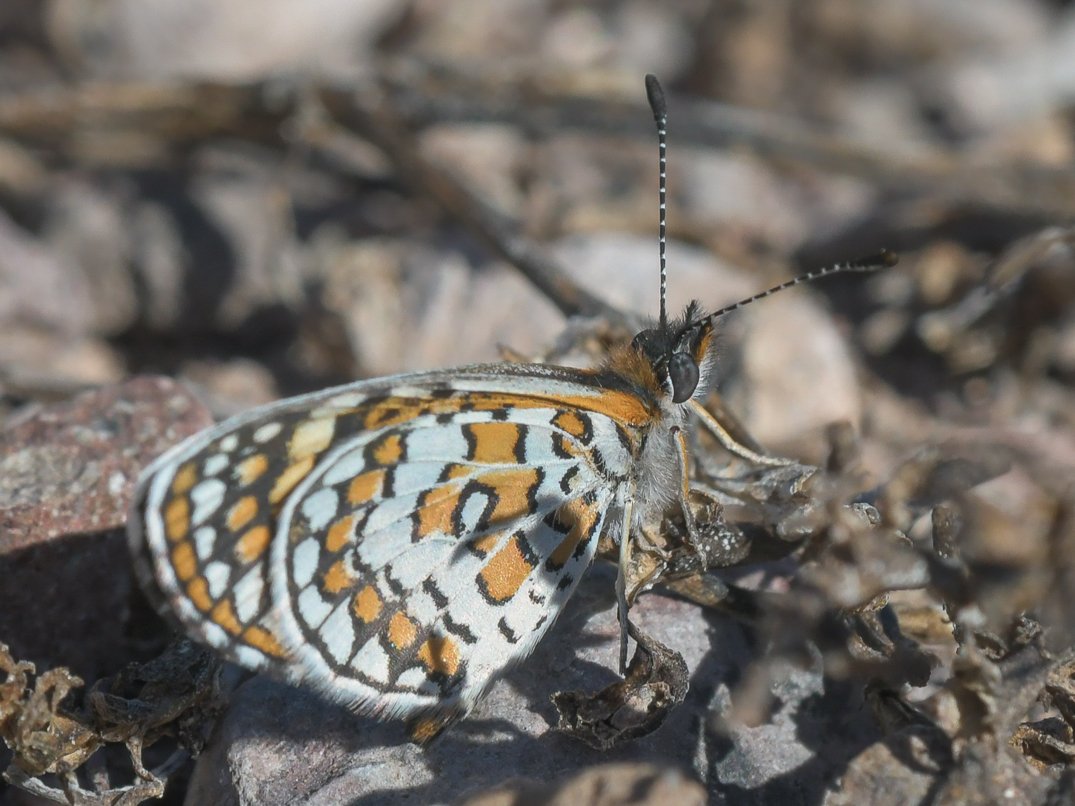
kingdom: Animalia
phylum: Arthropoda
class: Insecta
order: Lepidoptera
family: Nymphalidae
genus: Dymasia
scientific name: Dymasia dymas
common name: Tiny Checkerspot
